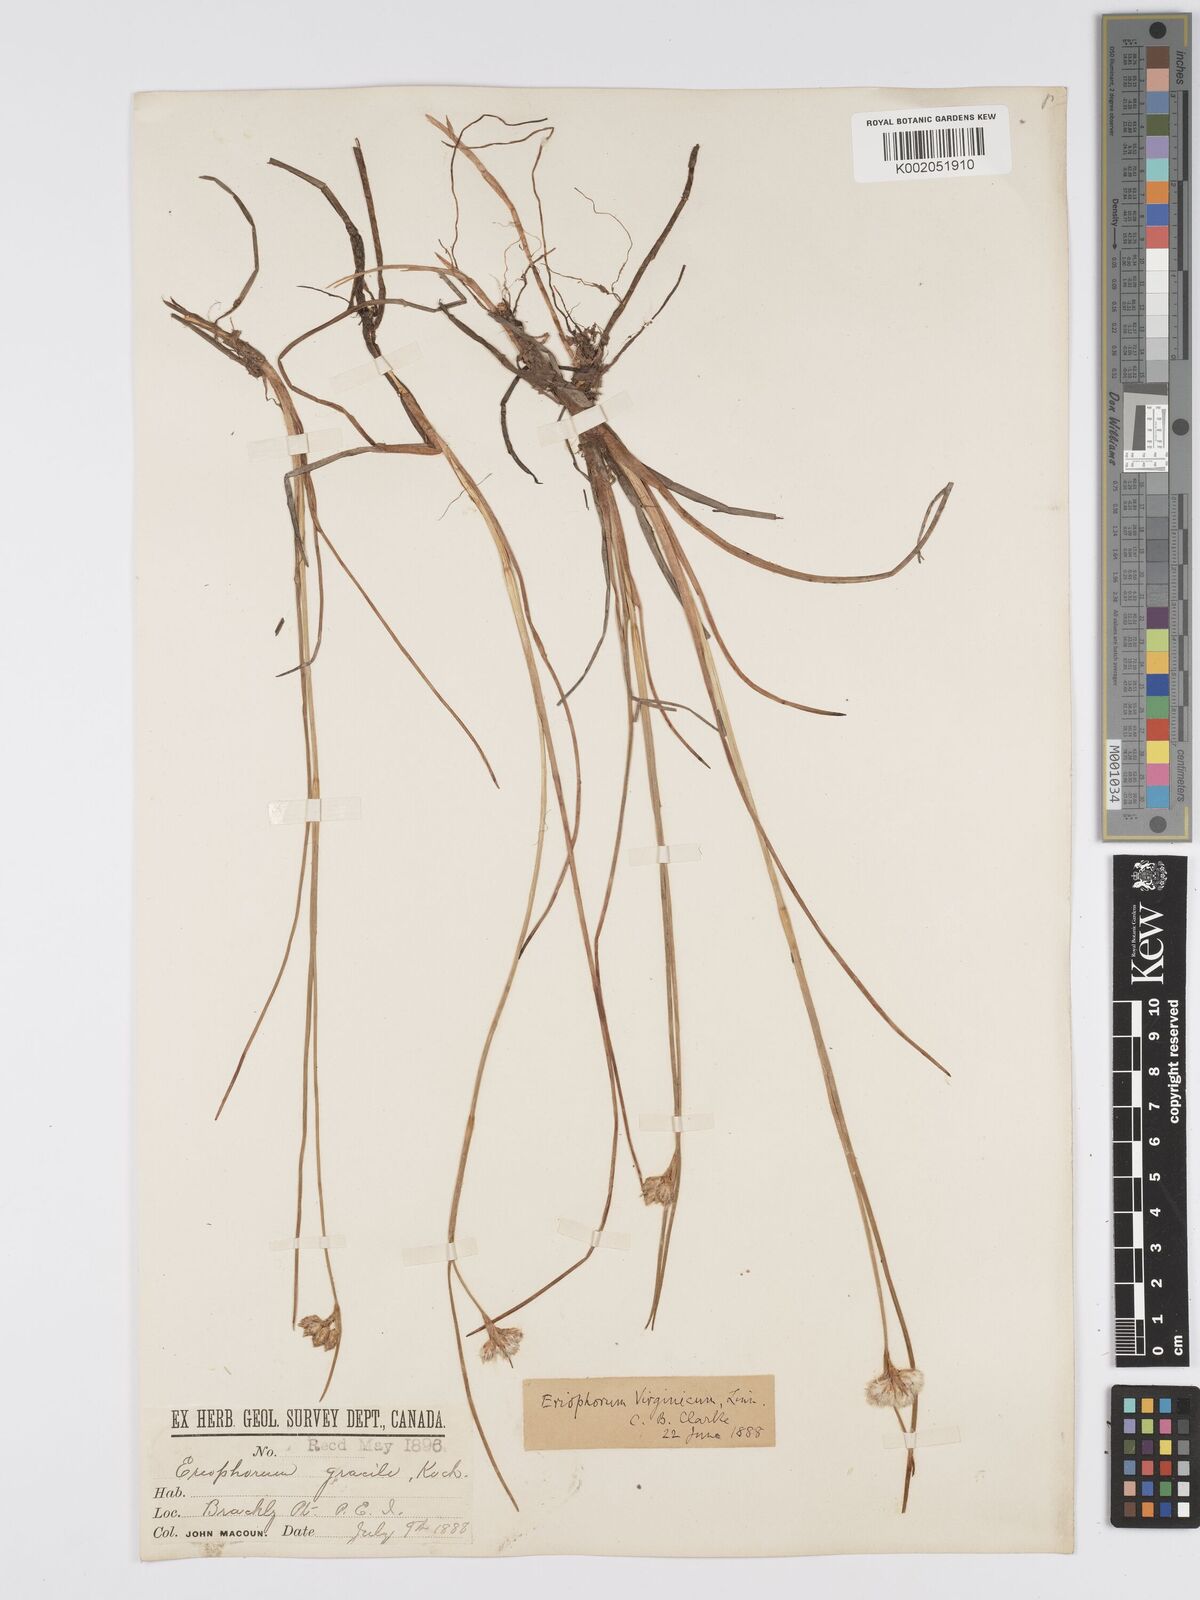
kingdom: Plantae
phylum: Tracheophyta
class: Liliopsida
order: Poales
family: Cyperaceae
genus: Eriophorum
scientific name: Eriophorum virginicum
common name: Tawny cottongrass
